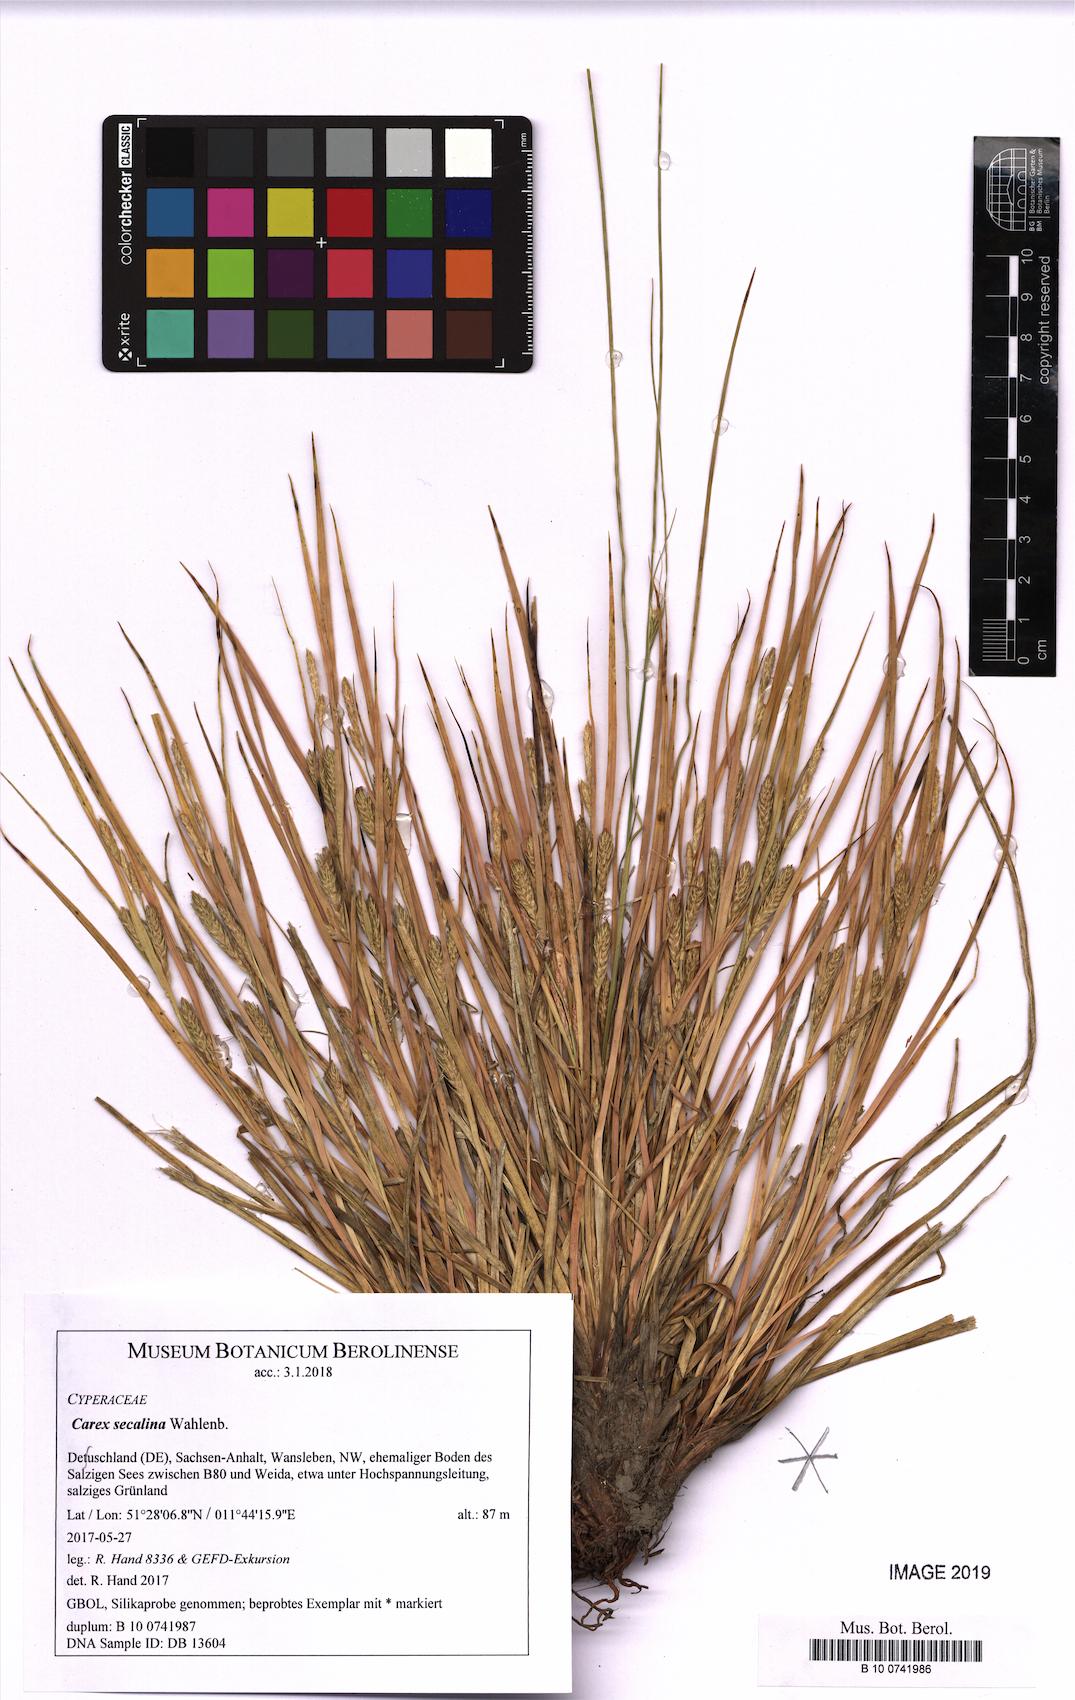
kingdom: Plantae
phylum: Tracheophyta
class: Liliopsida
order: Poales
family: Cyperaceae
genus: Carex
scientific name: Carex secalina
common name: Rye sedge
